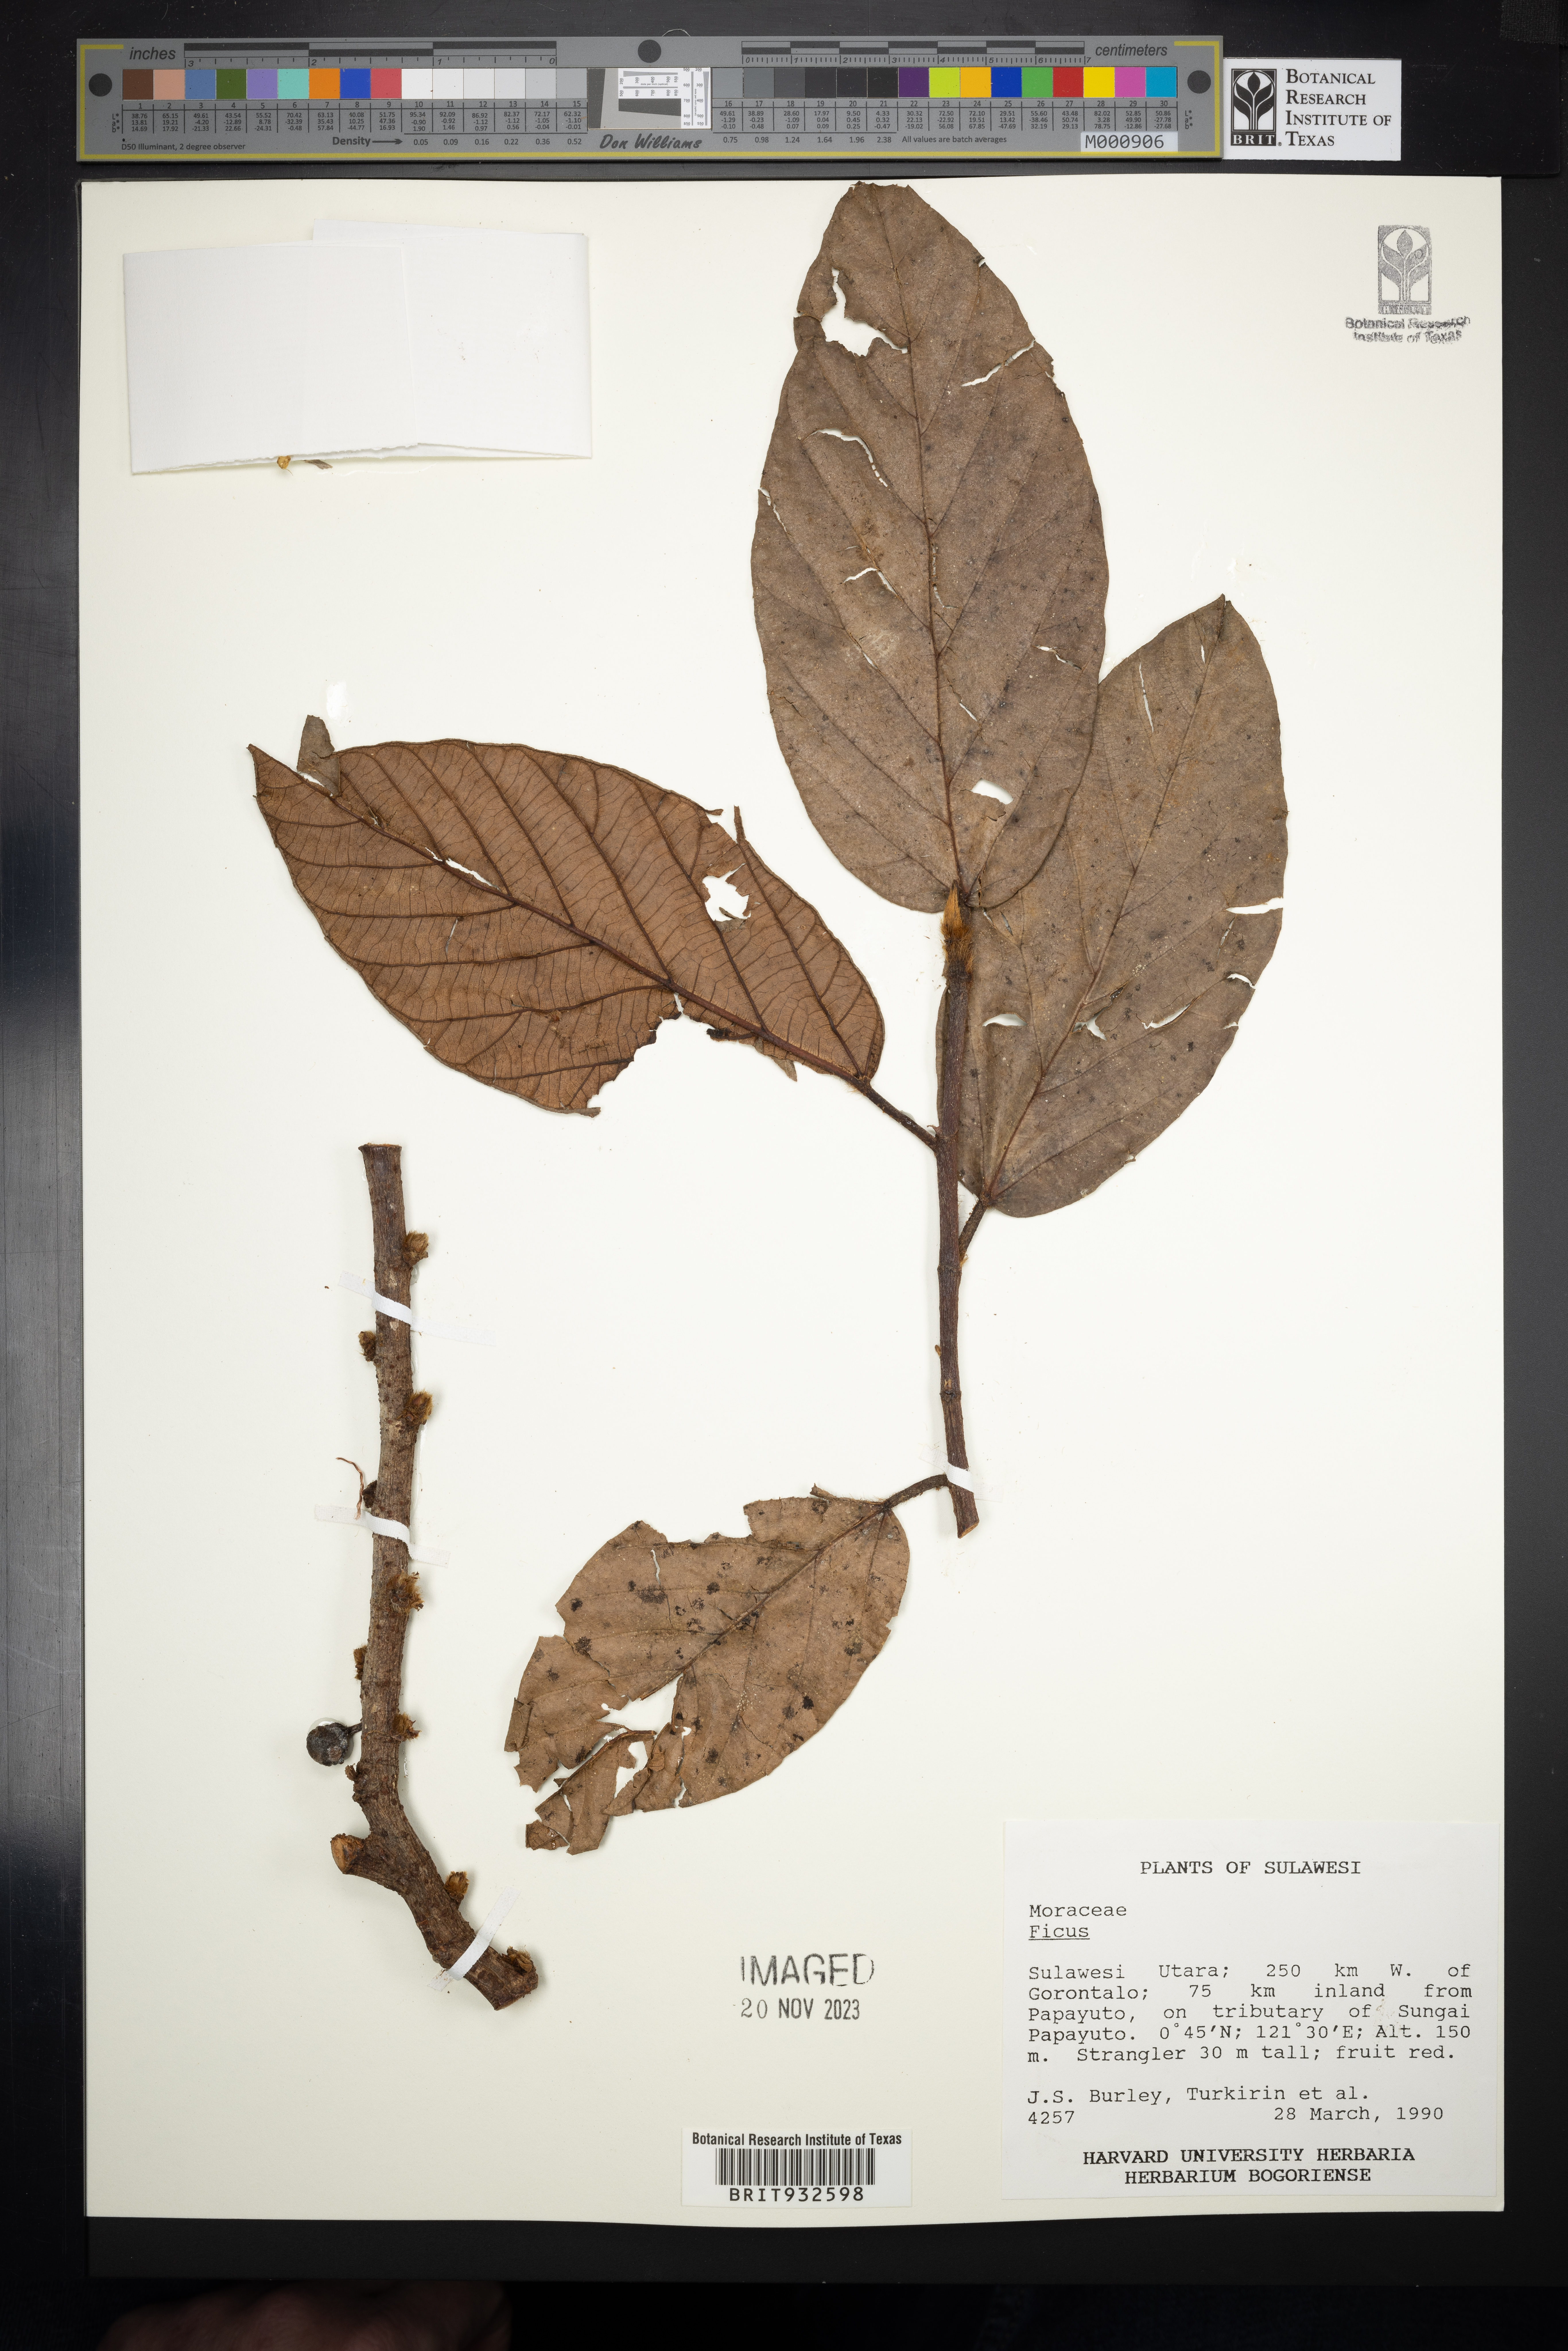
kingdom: Plantae
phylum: Tracheophyta
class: Magnoliopsida
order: Rosales
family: Moraceae
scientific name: Moraceae
